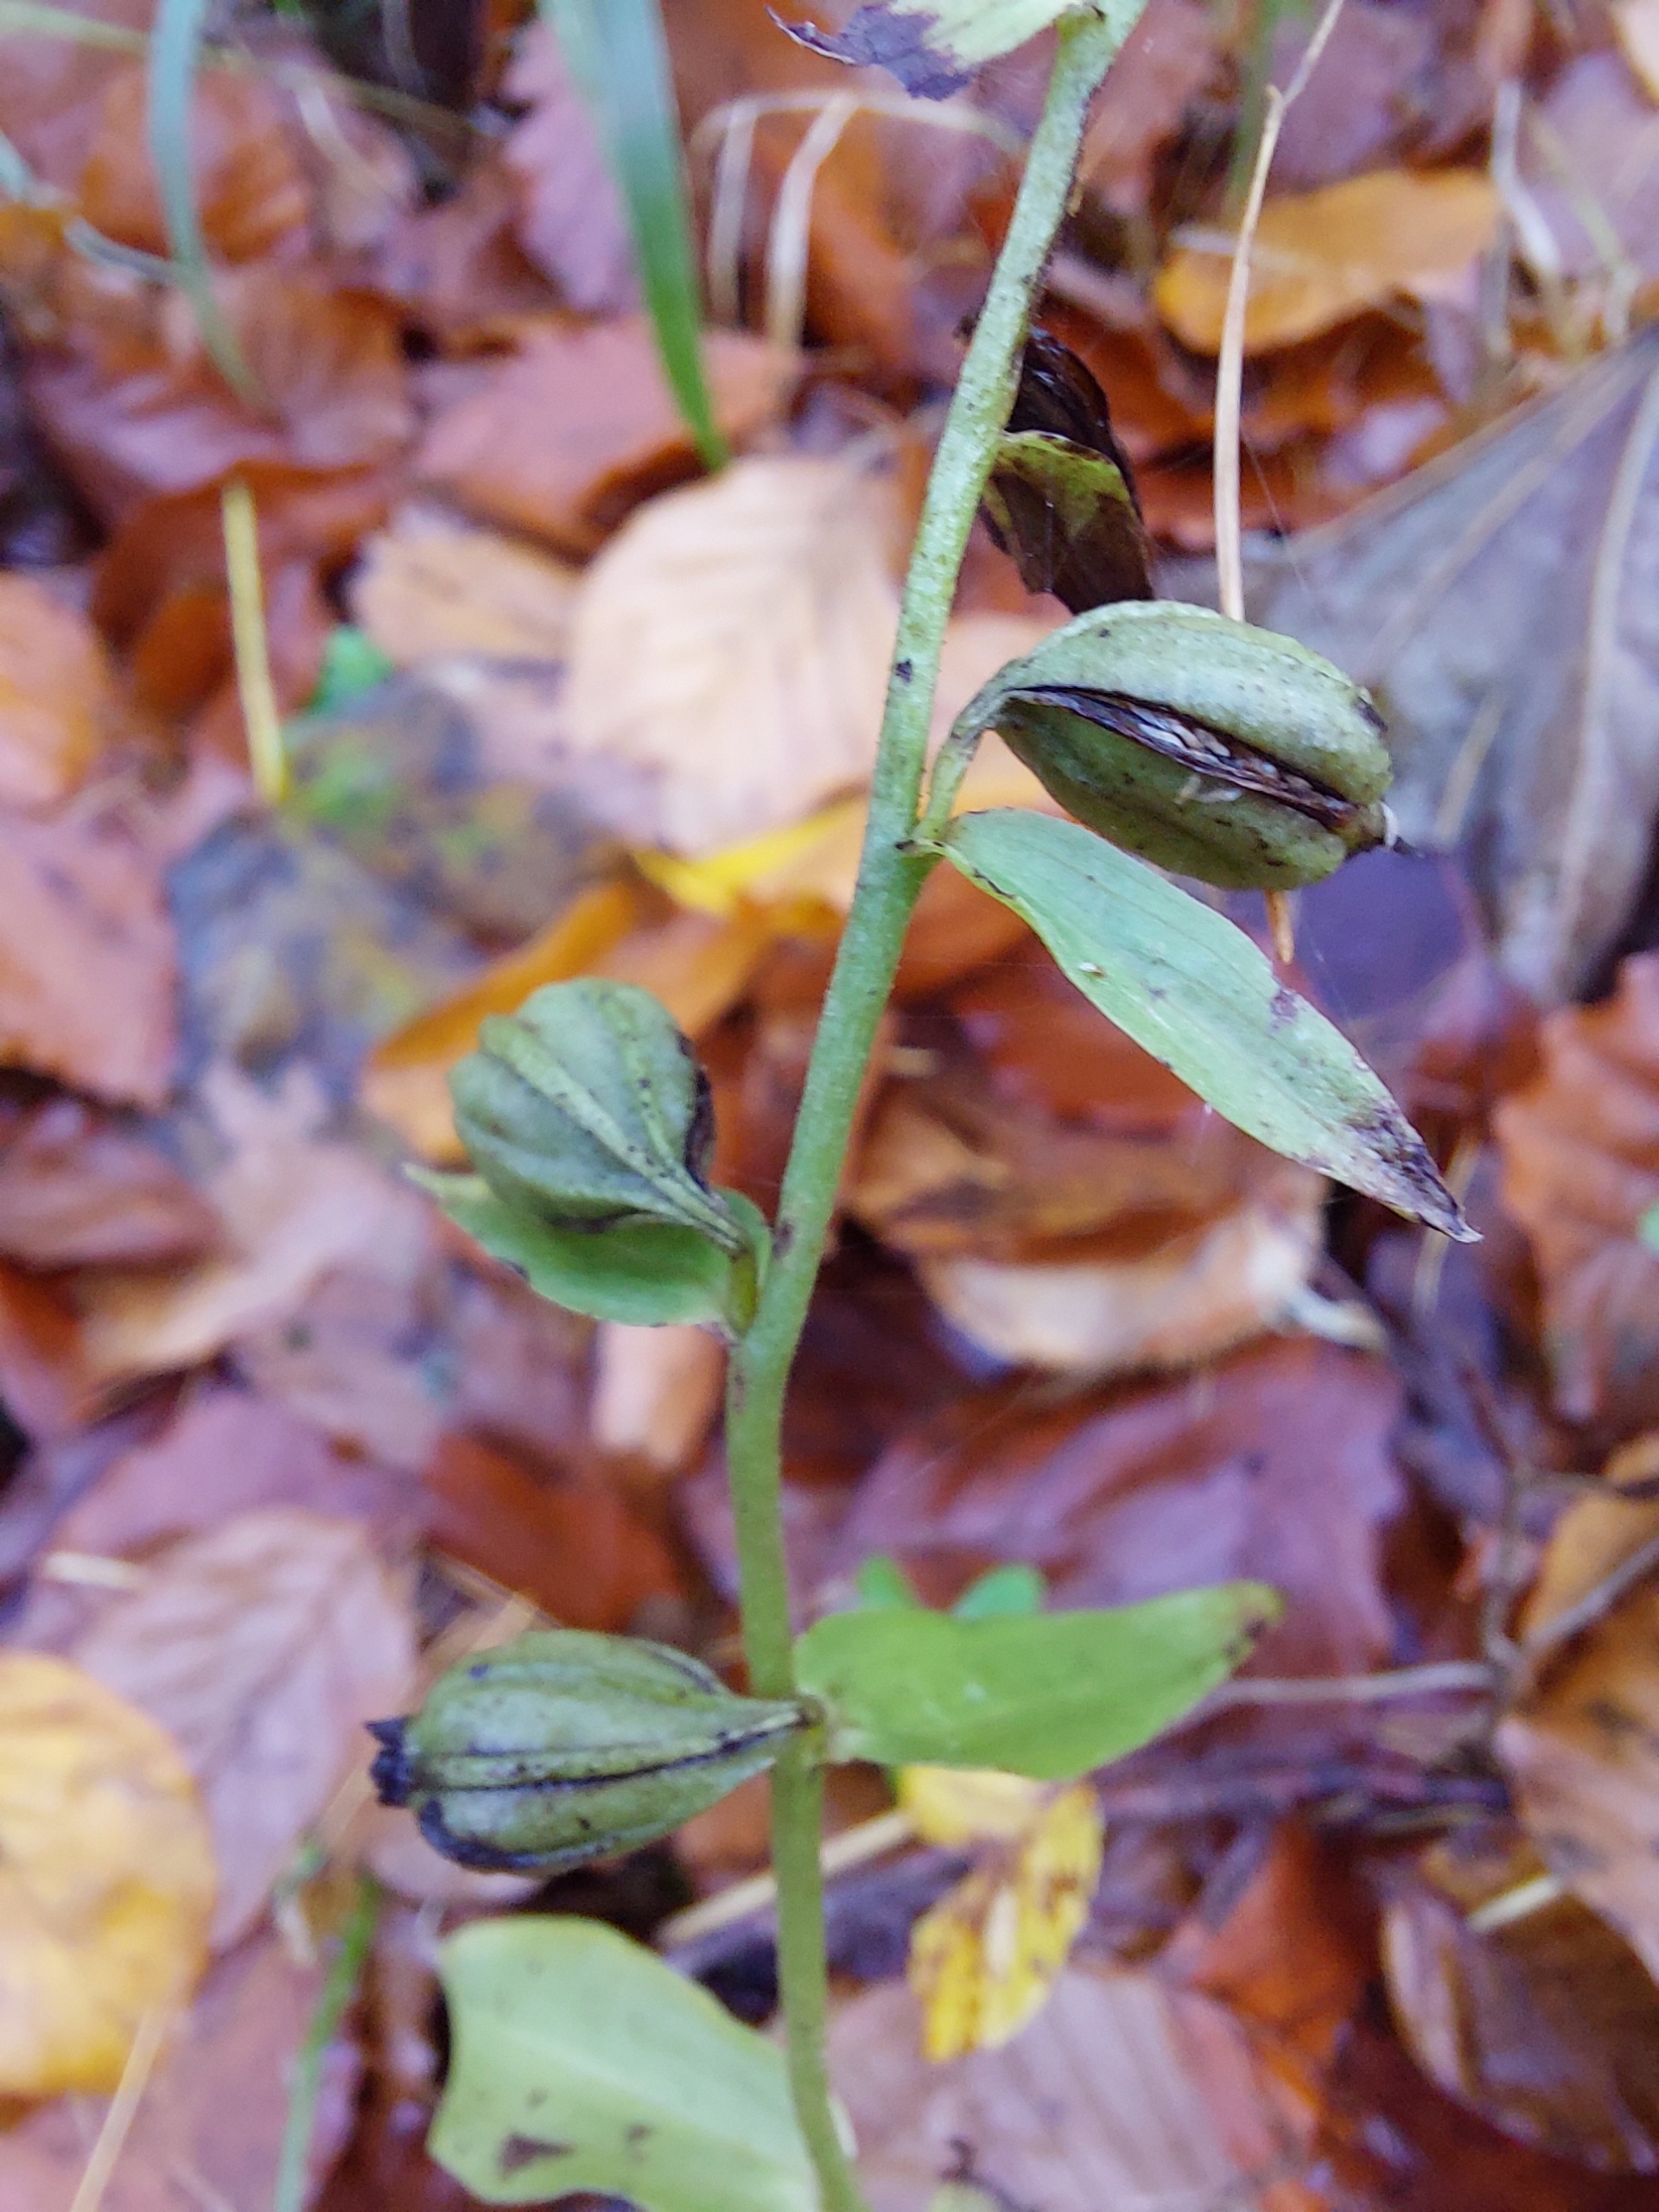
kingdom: Plantae
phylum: Tracheophyta
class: Liliopsida
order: Asparagales
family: Orchidaceae
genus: Epipactis
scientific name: Epipactis phyllanthes
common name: Nikkende hullæbe
